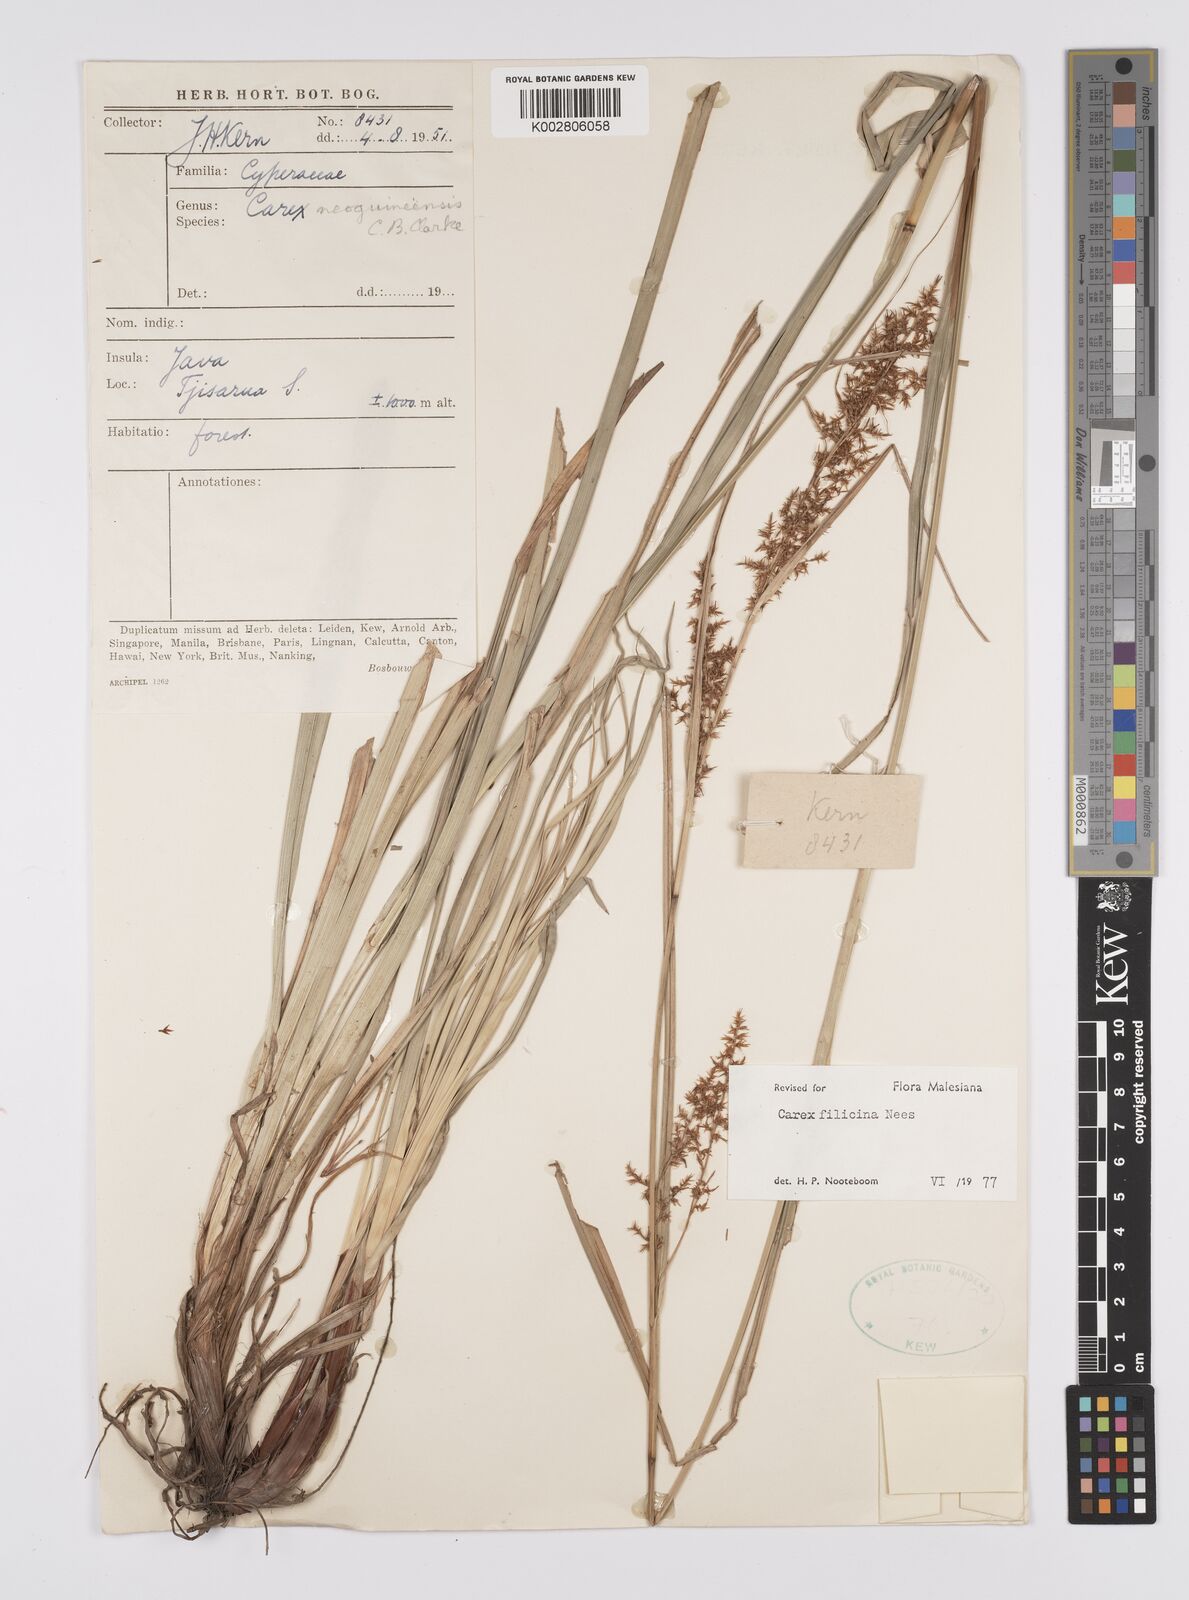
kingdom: Plantae
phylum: Tracheophyta
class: Liliopsida
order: Poales
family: Cyperaceae
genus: Carex
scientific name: Carex filicina
